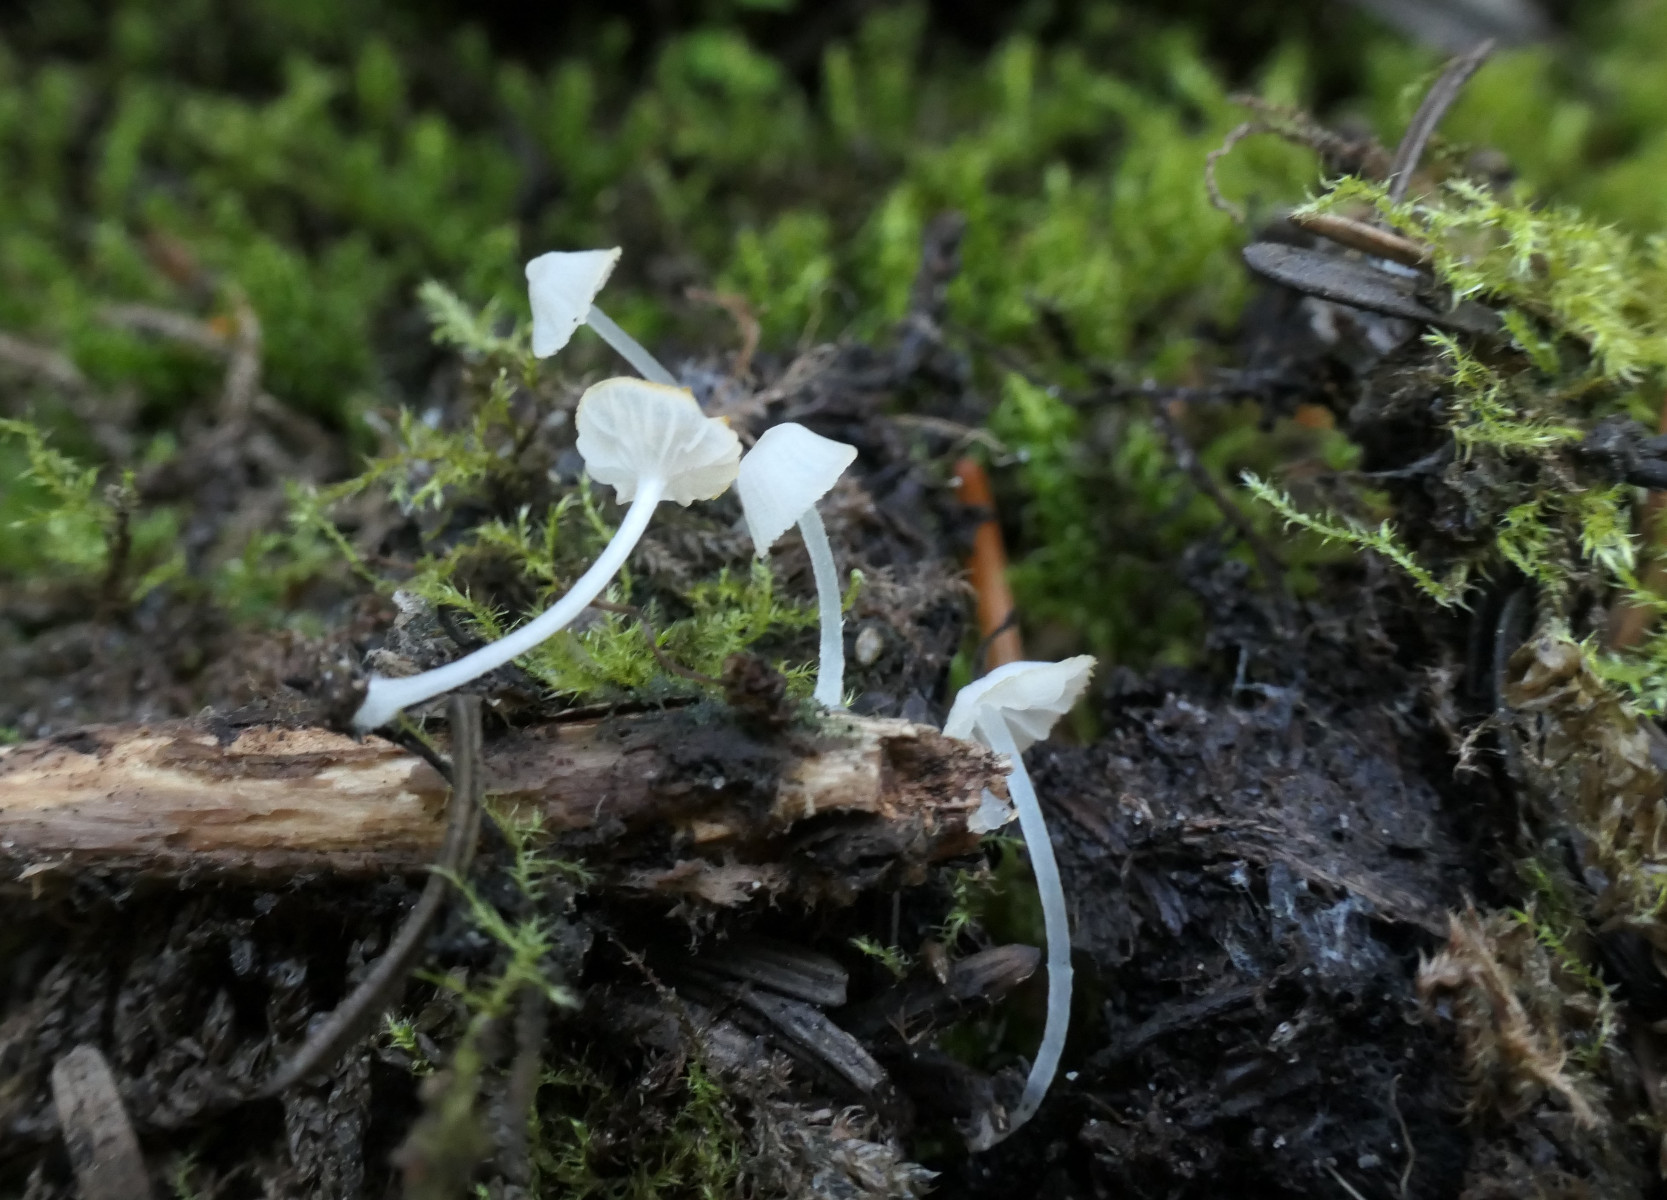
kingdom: Fungi
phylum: Basidiomycota
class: Agaricomycetes
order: Agaricales
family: Tricholomataceae
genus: Delicatula
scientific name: Delicatula integrella
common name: slørhuesvamp
